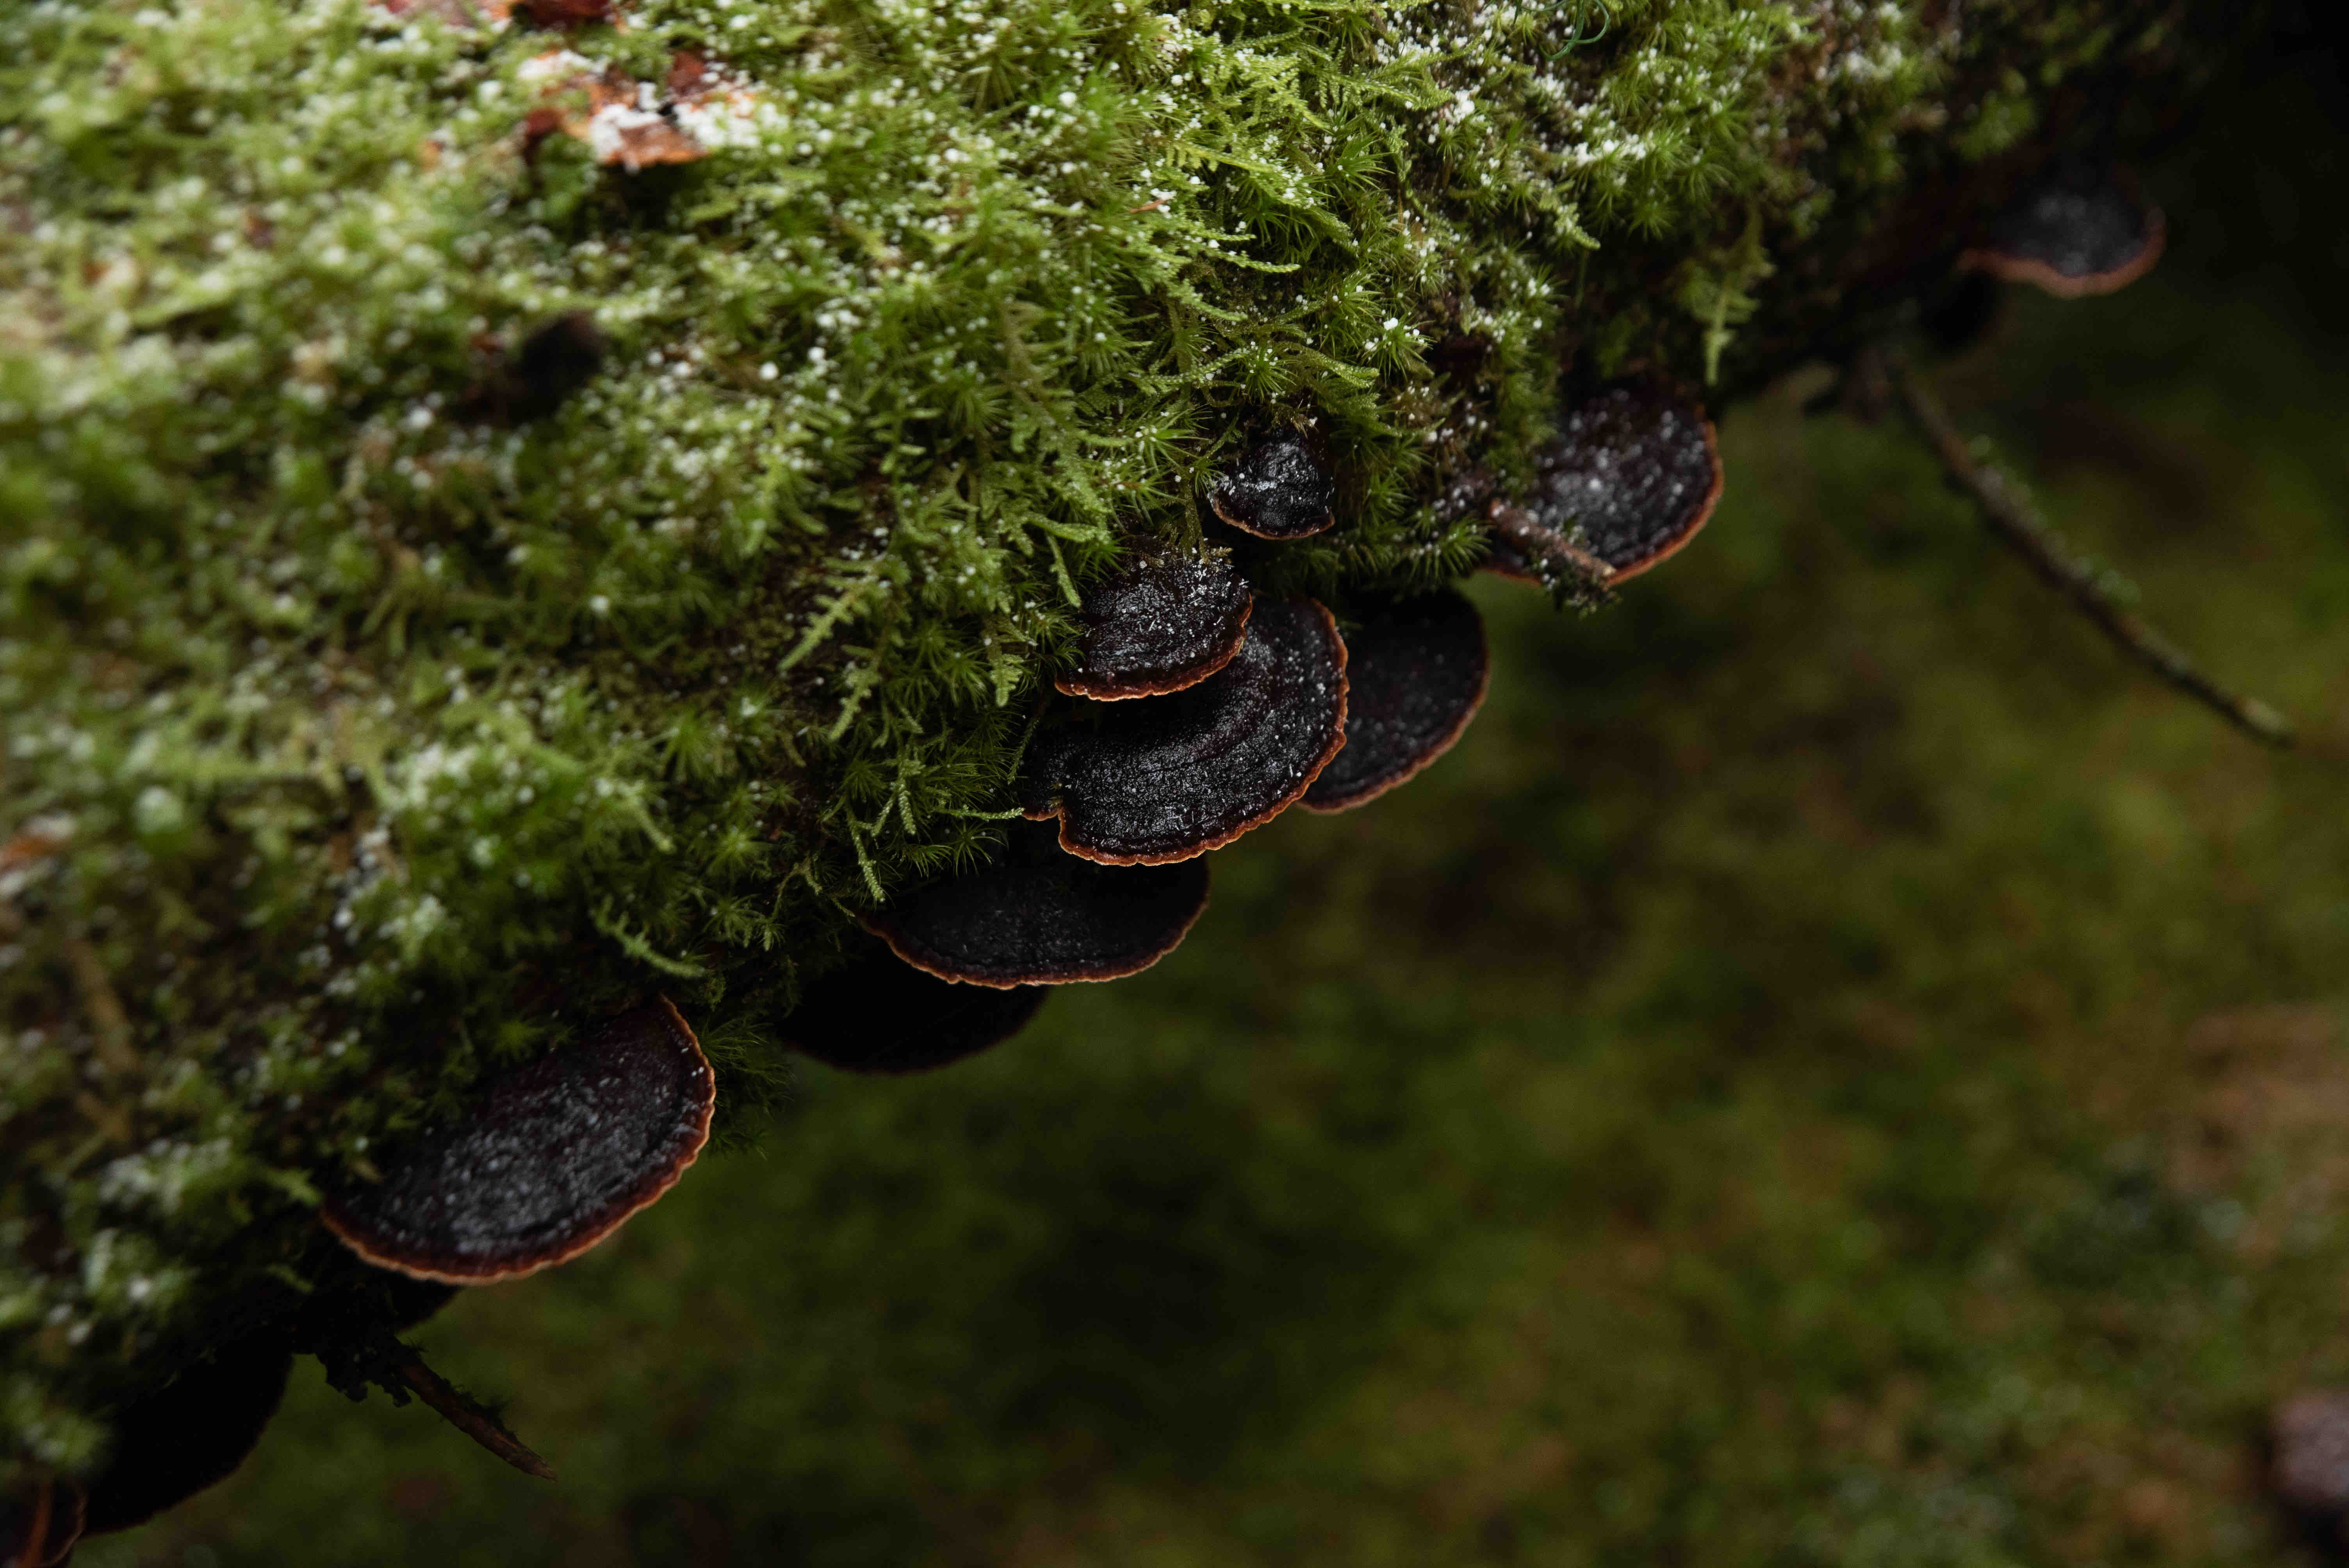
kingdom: Fungi
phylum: Basidiomycota
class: Agaricomycetes
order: Polyporales
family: Fomitopsidaceae
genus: Fomitopsis
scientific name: Fomitopsis pinicola
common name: randbæltet hovporesvamp
